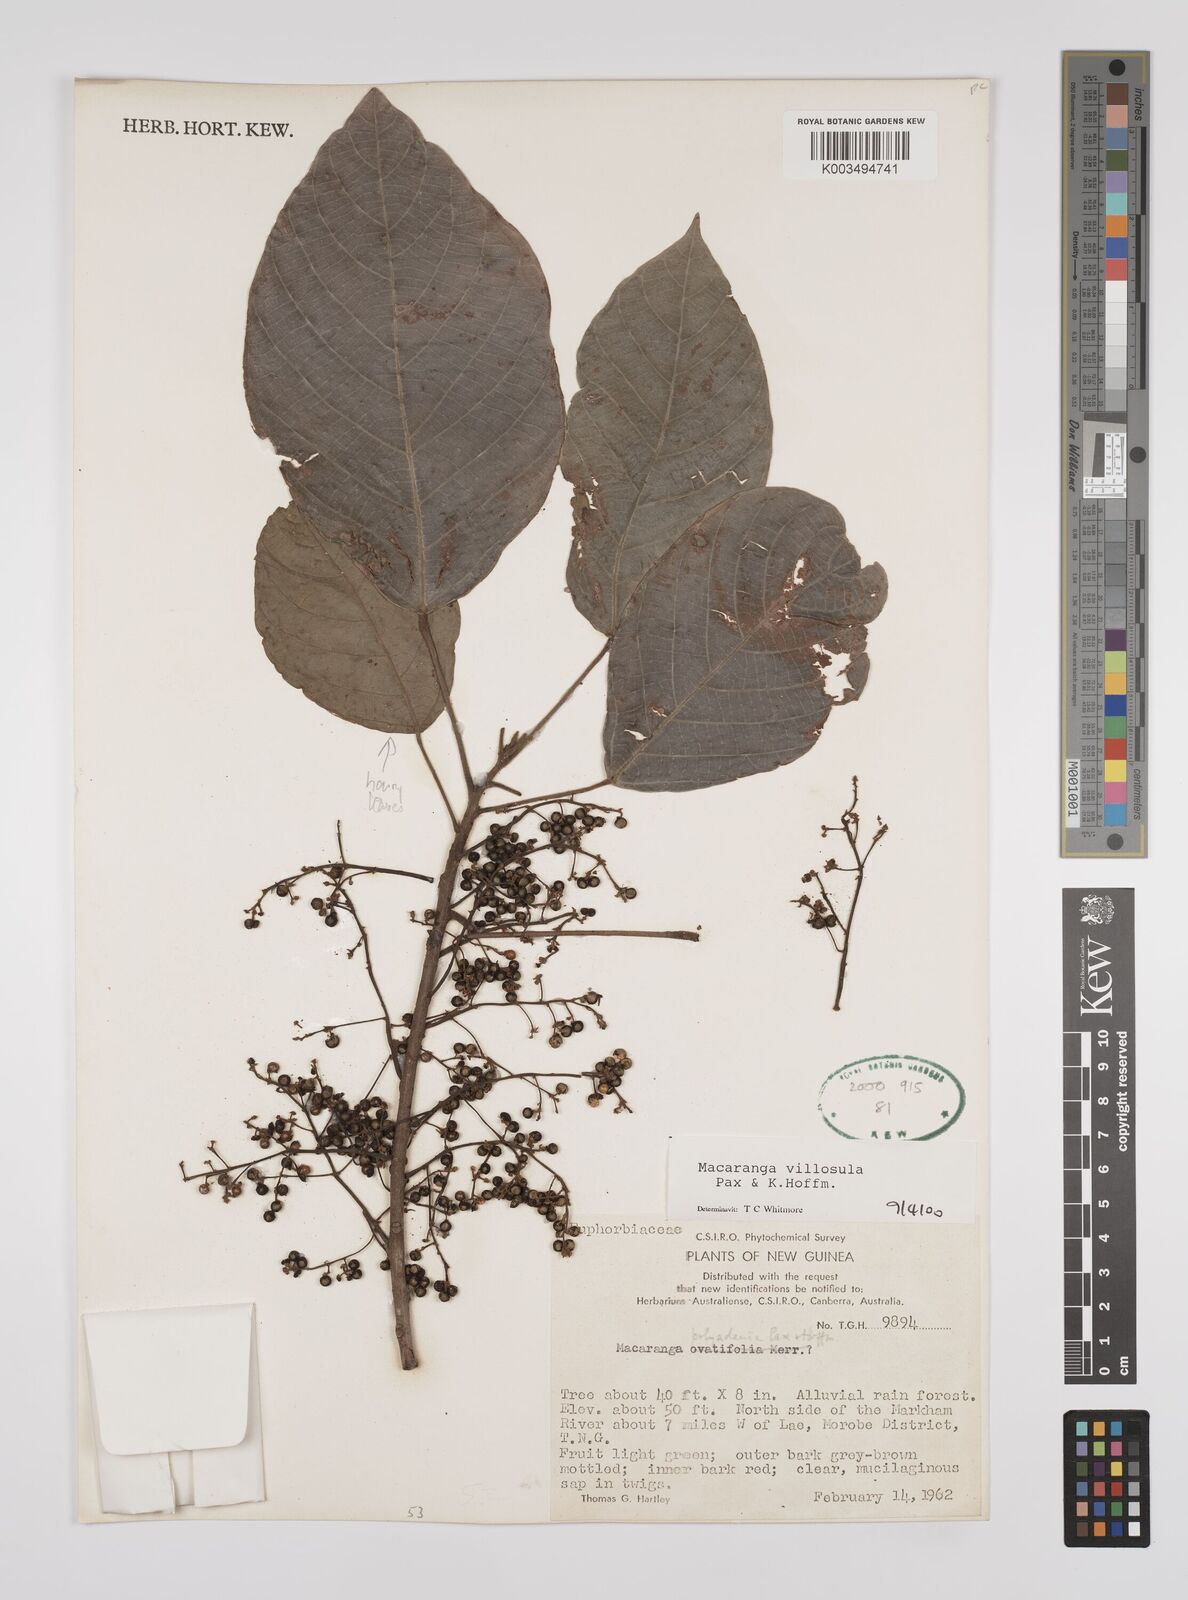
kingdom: Plantae
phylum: Tracheophyta
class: Magnoliopsida
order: Malpighiales
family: Euphorbiaceae
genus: Macaranga
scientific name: Macaranga villosula
